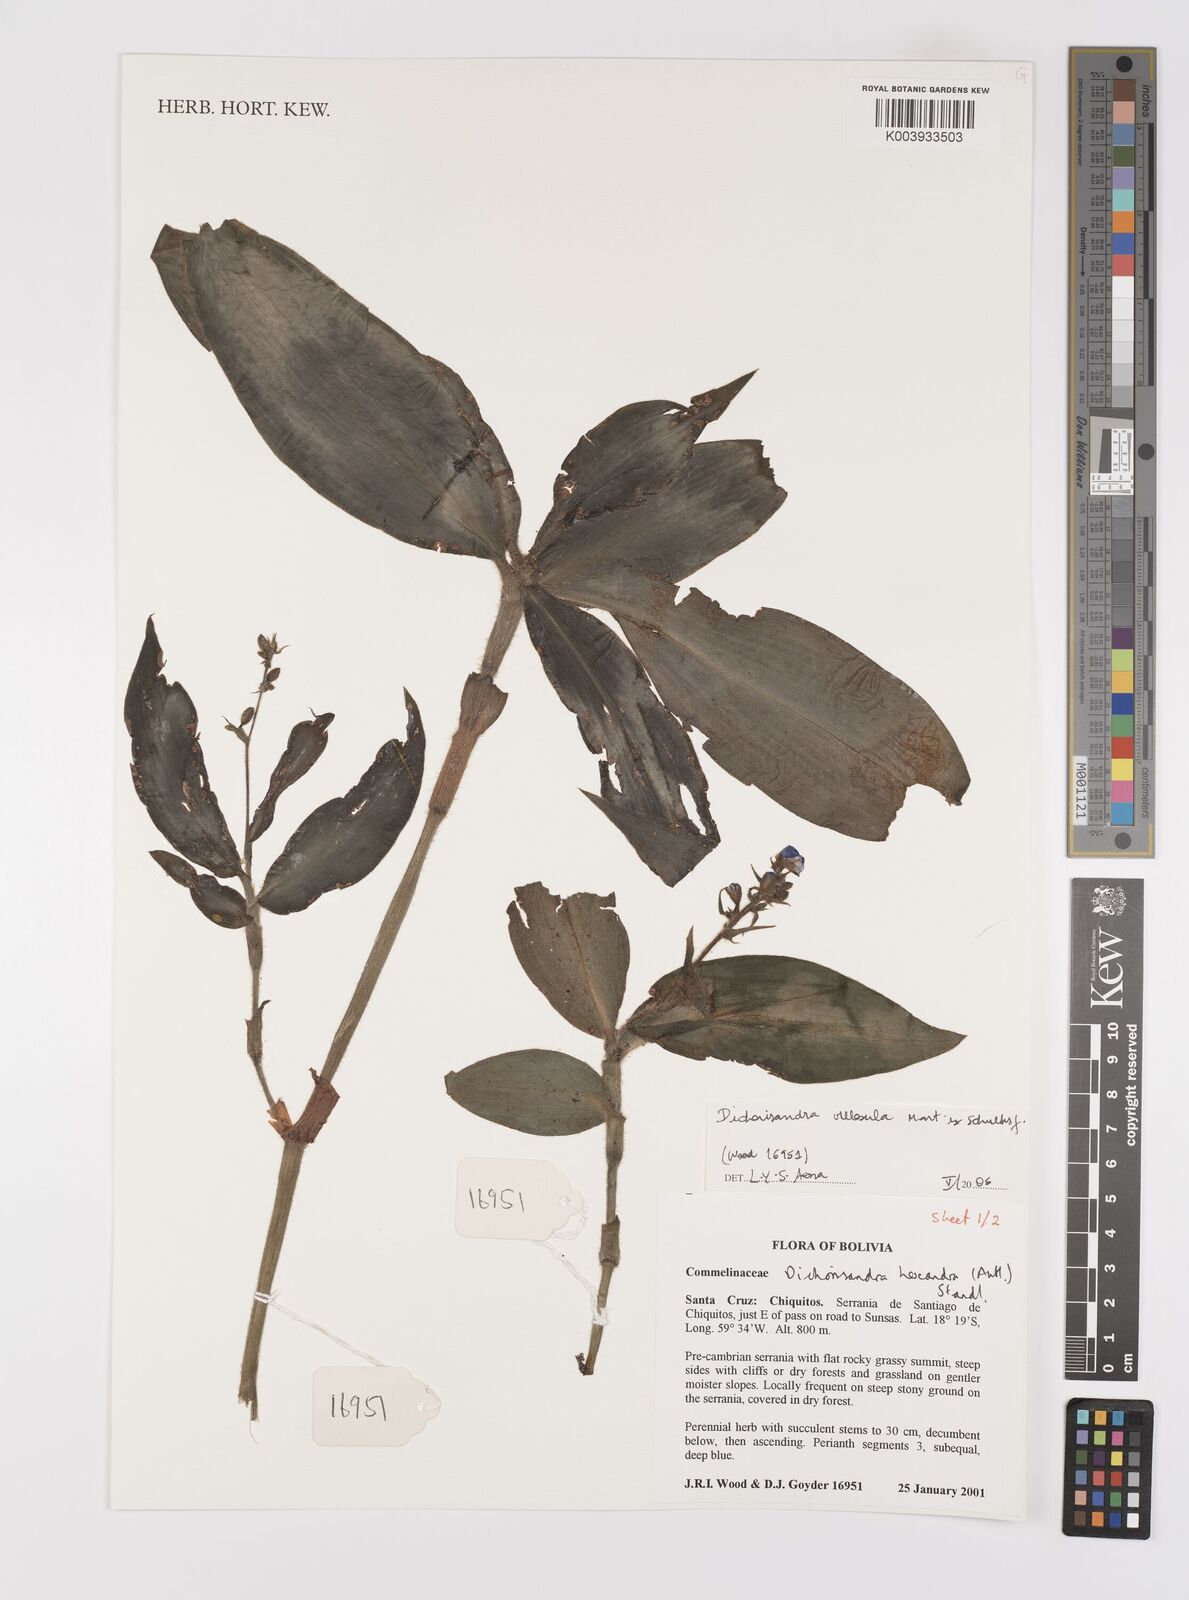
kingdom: Plantae
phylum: Tracheophyta
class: Liliopsida
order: Commelinales
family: Commelinaceae
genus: Dichorisandra
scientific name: Dichorisandra villosula
